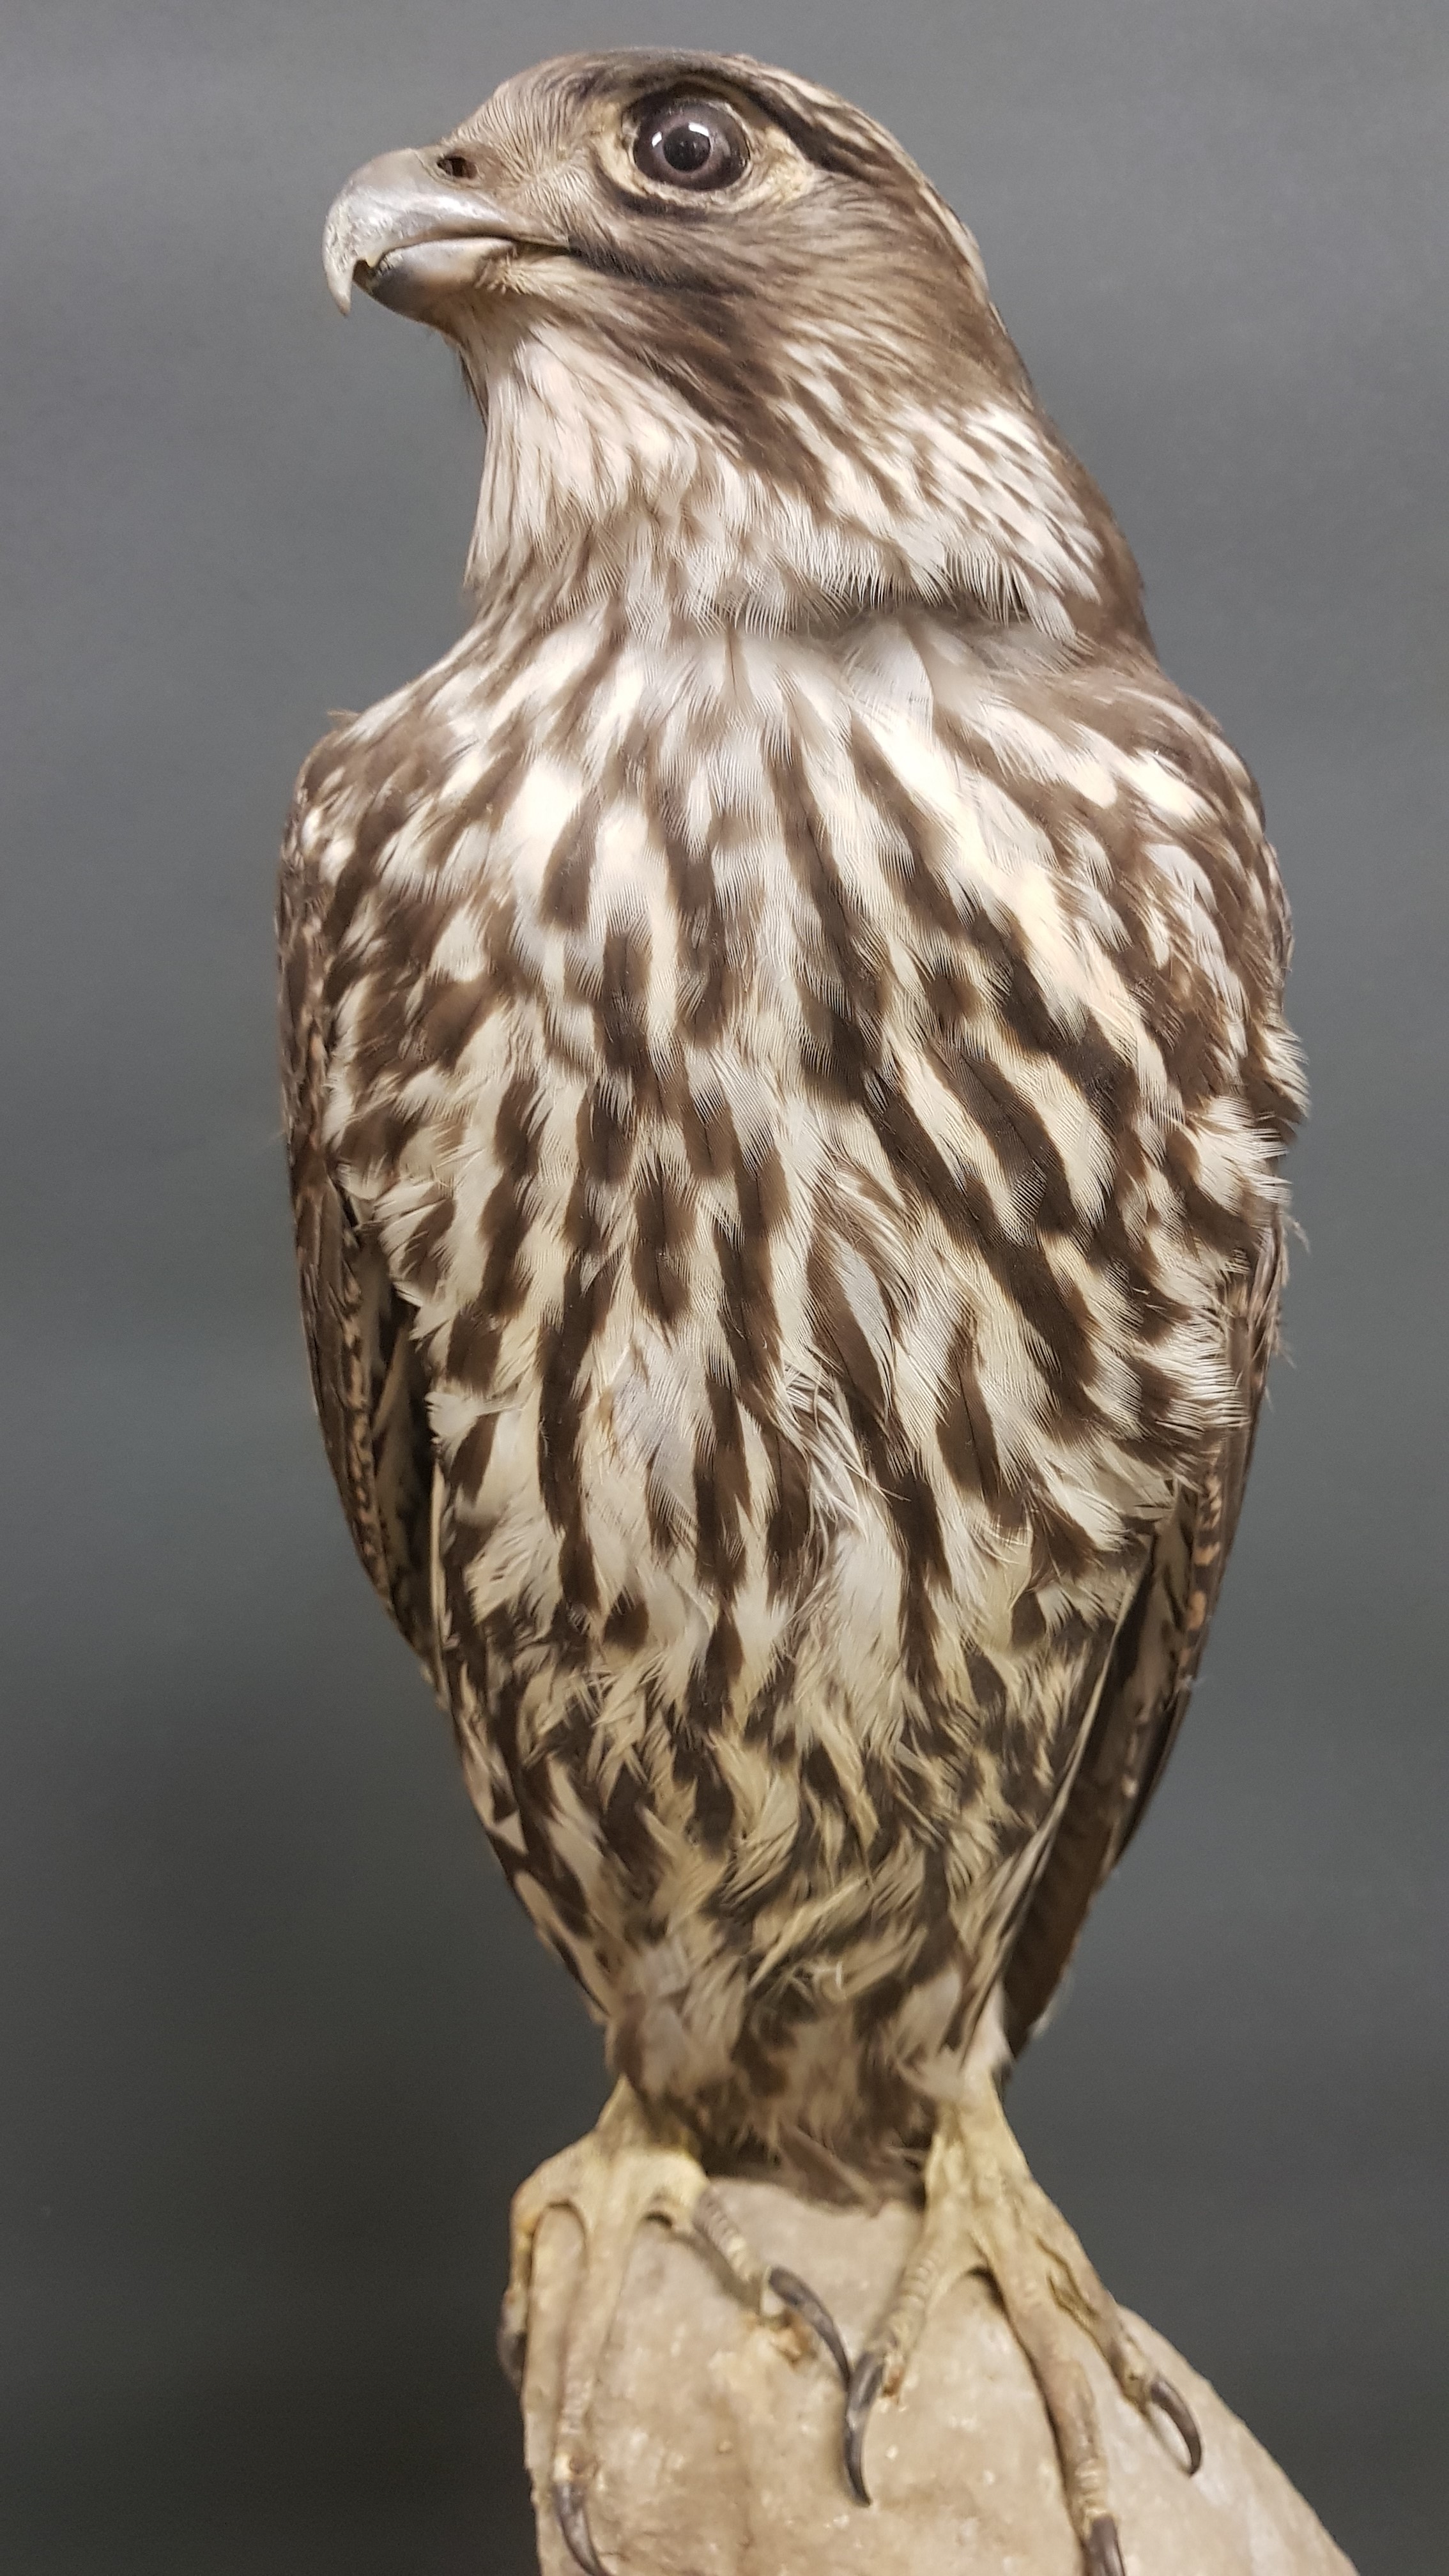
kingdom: Animalia
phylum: Chordata
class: Aves
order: Falconiformes
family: Falconidae
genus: Falco
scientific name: Falco rusticolus
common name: Gyrfalcon
